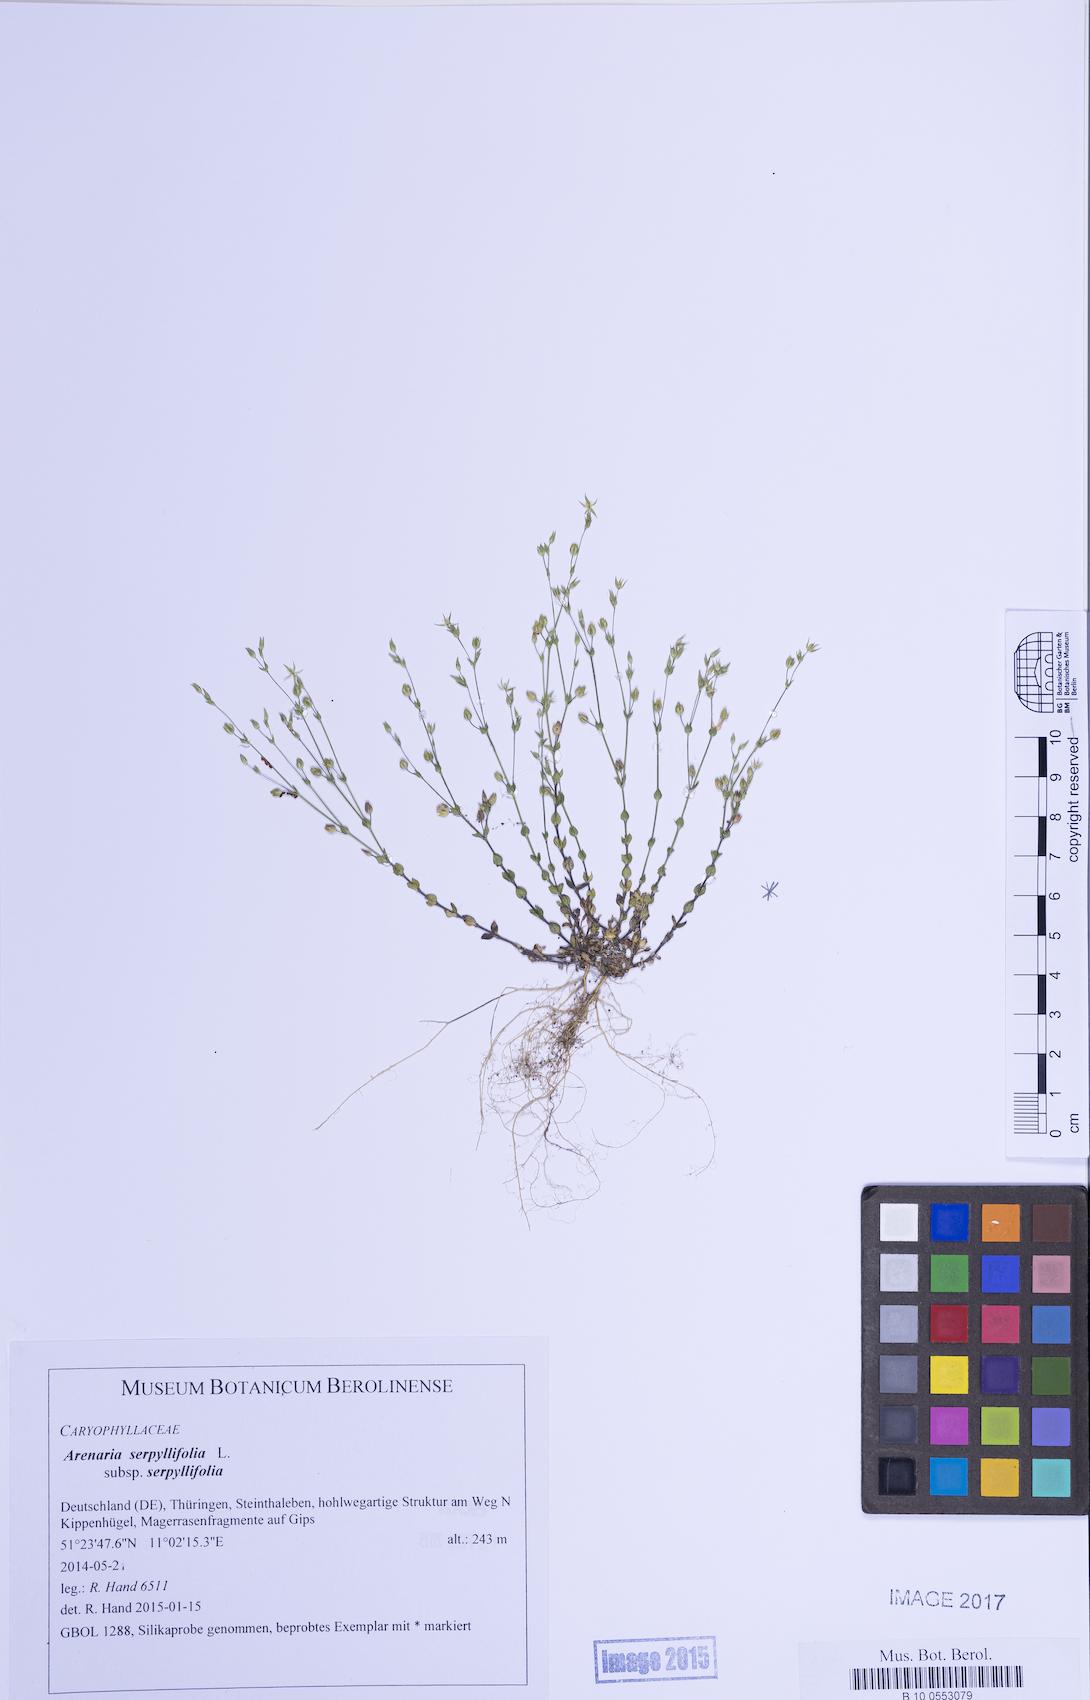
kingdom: Plantae
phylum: Tracheophyta
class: Magnoliopsida
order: Caryophyllales
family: Caryophyllaceae
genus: Arenaria
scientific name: Arenaria serpyllifolia
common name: Thyme-leaved sandwort
